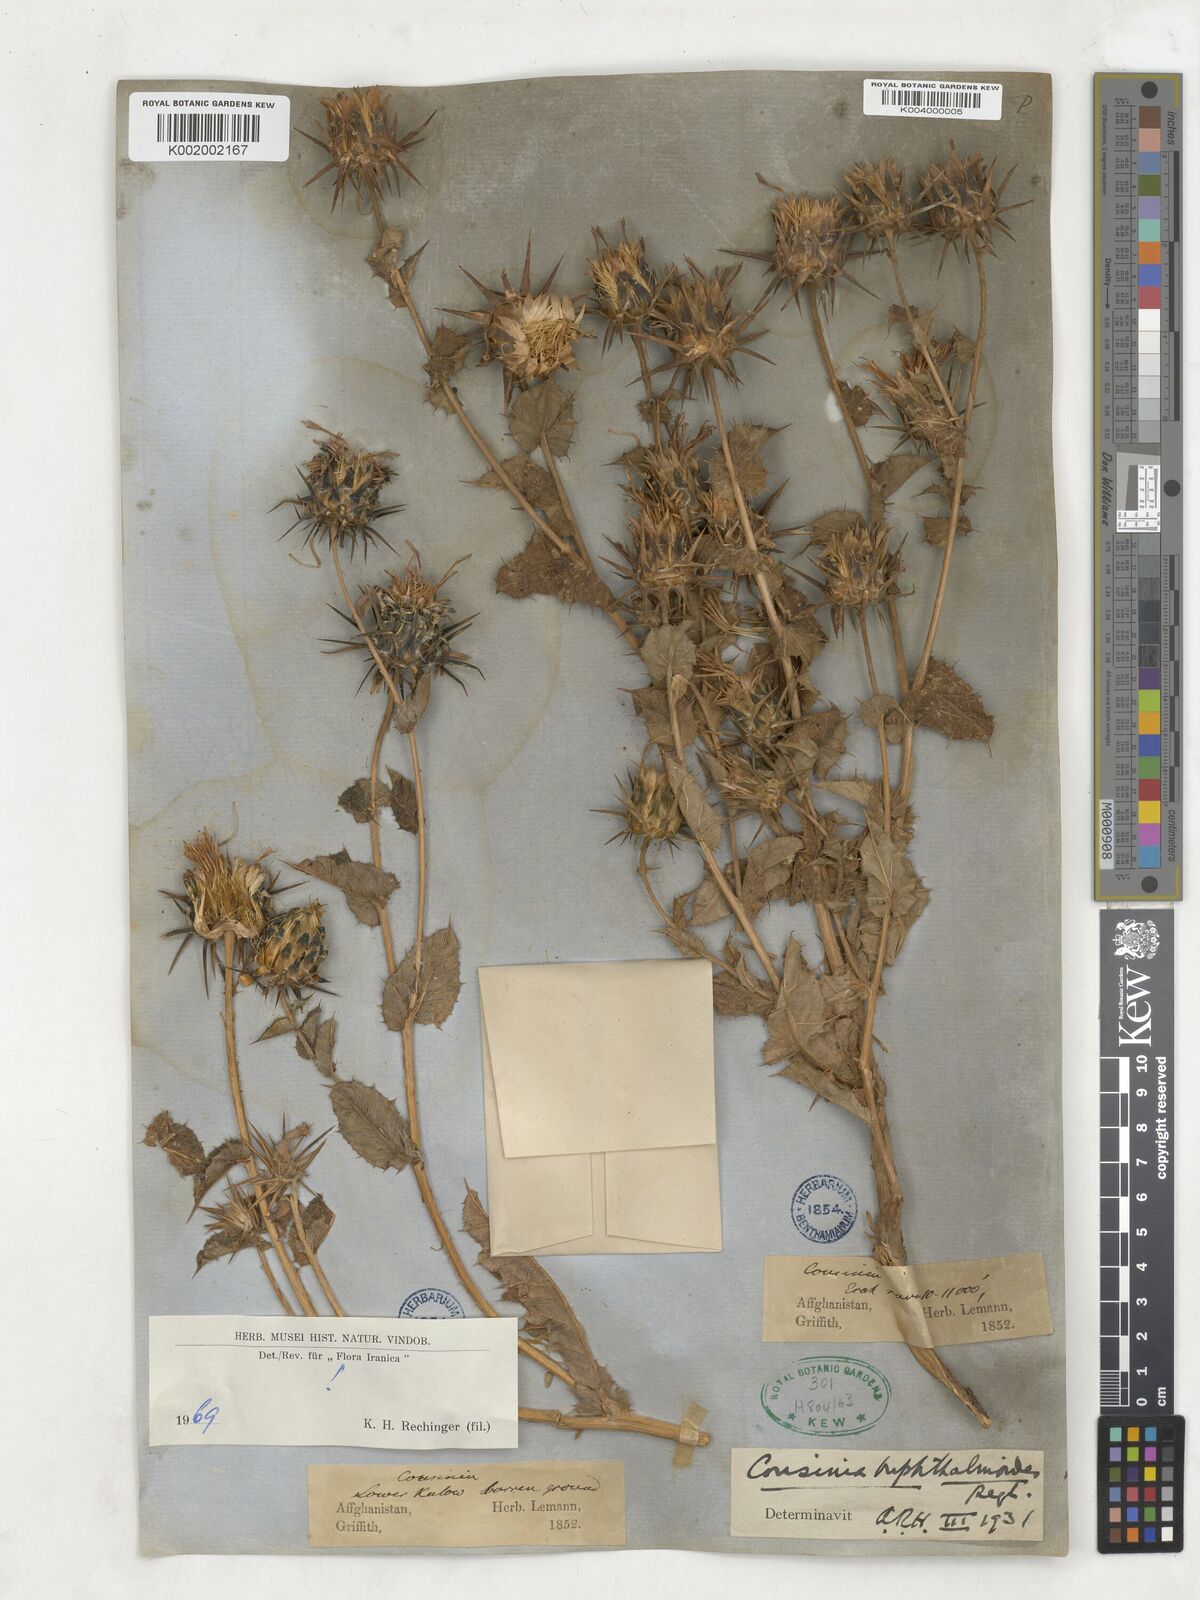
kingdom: Plantae
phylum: Tracheophyta
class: Magnoliopsida
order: Asterales
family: Asteraceae
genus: Cousinia
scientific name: Cousinia buphthalmoides
